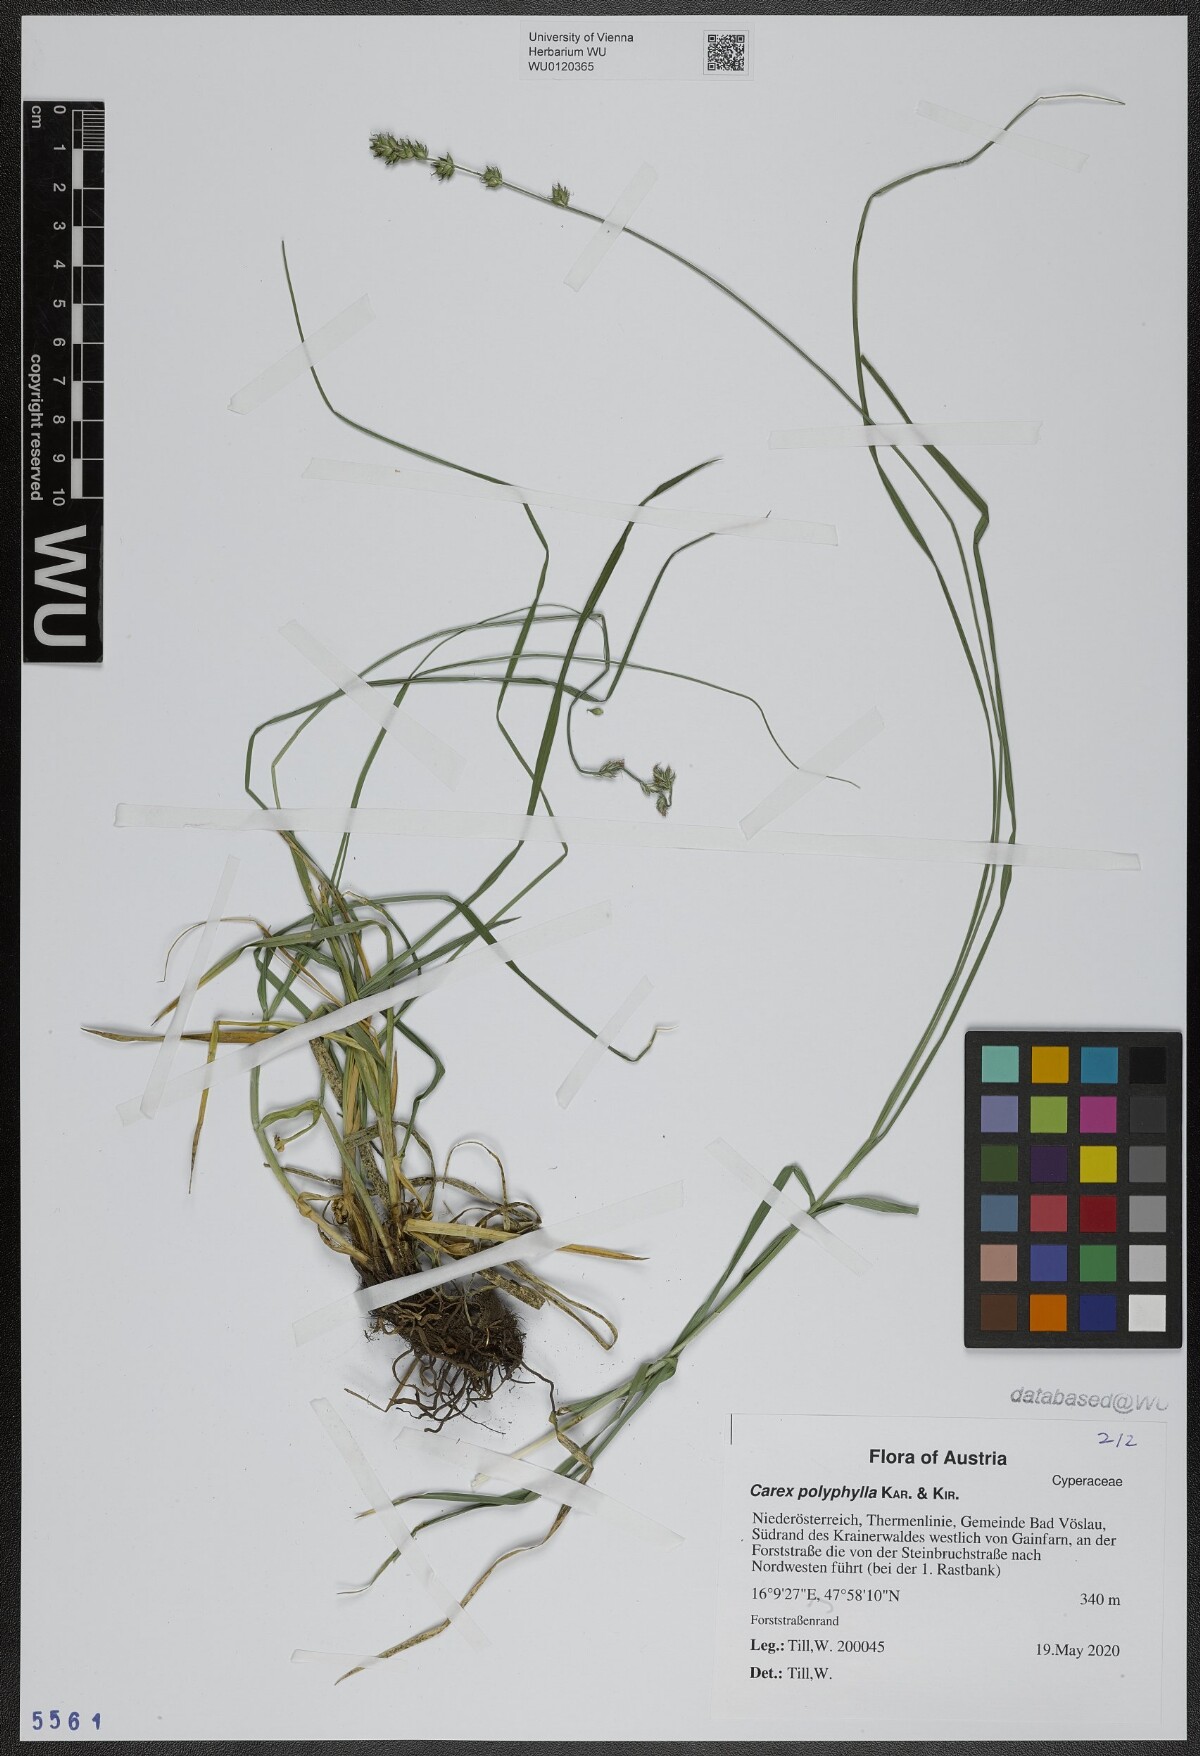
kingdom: Plantae
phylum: Tracheophyta
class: Liliopsida
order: Poales
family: Cyperaceae
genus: Carex
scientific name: Carex polyphylla
